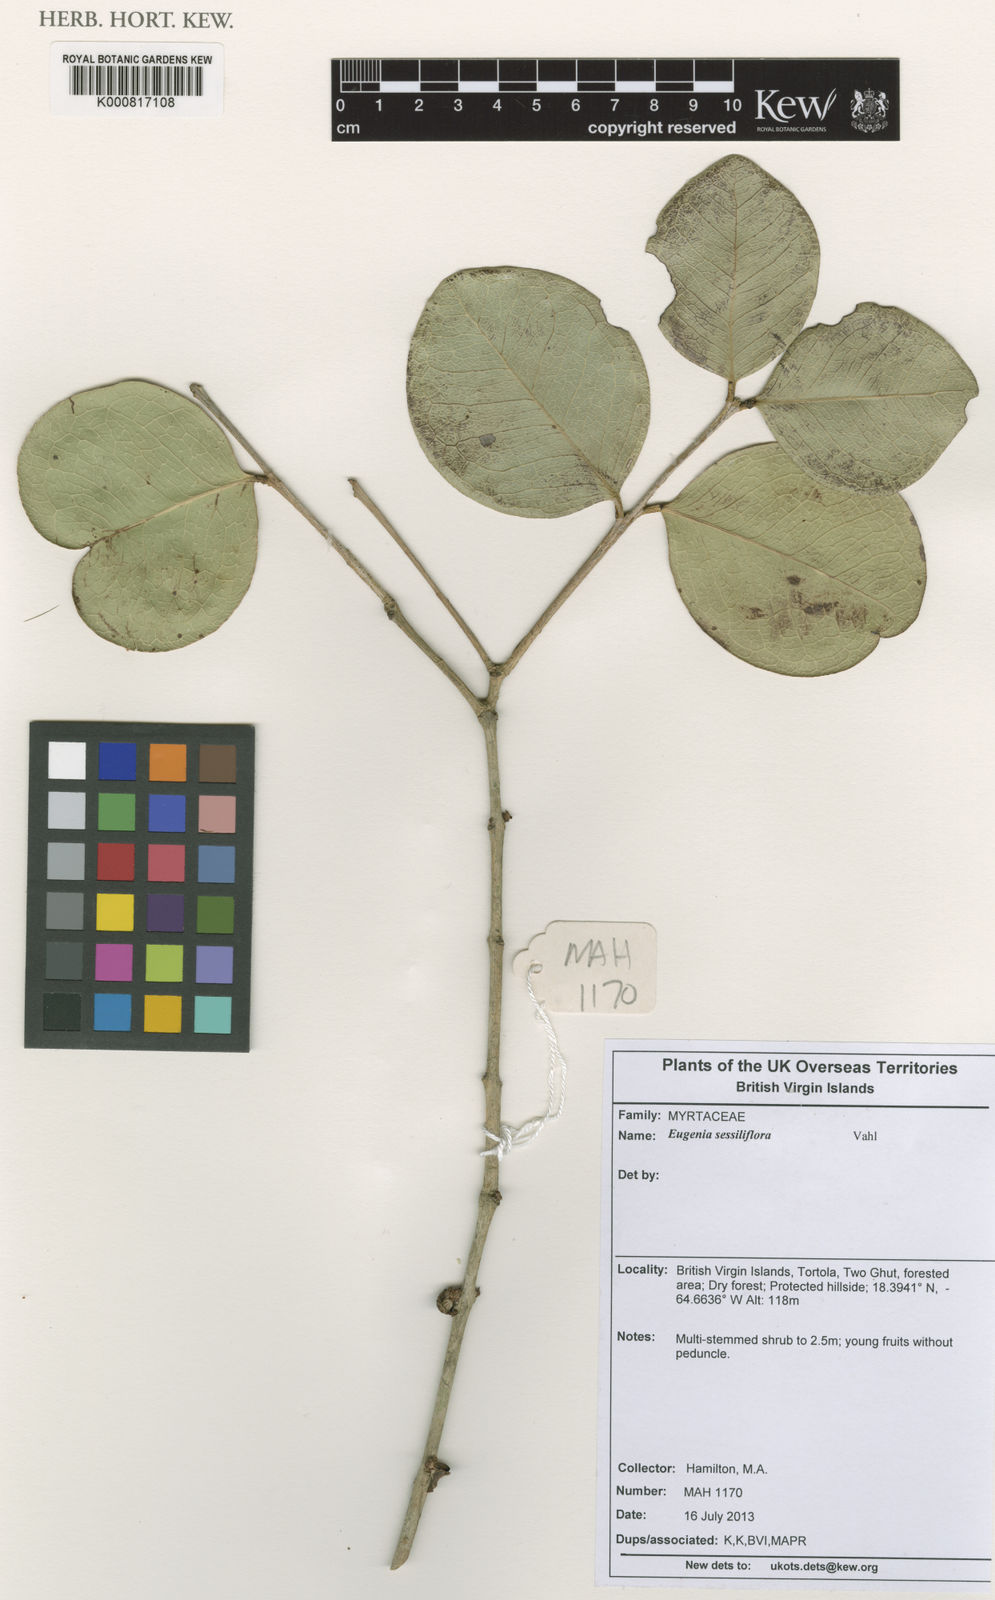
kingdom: Plantae
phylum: Tracheophyta
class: Magnoliopsida
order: Myrtales
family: Myrtaceae
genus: Eugenia
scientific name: Eugenia sessiliflora
